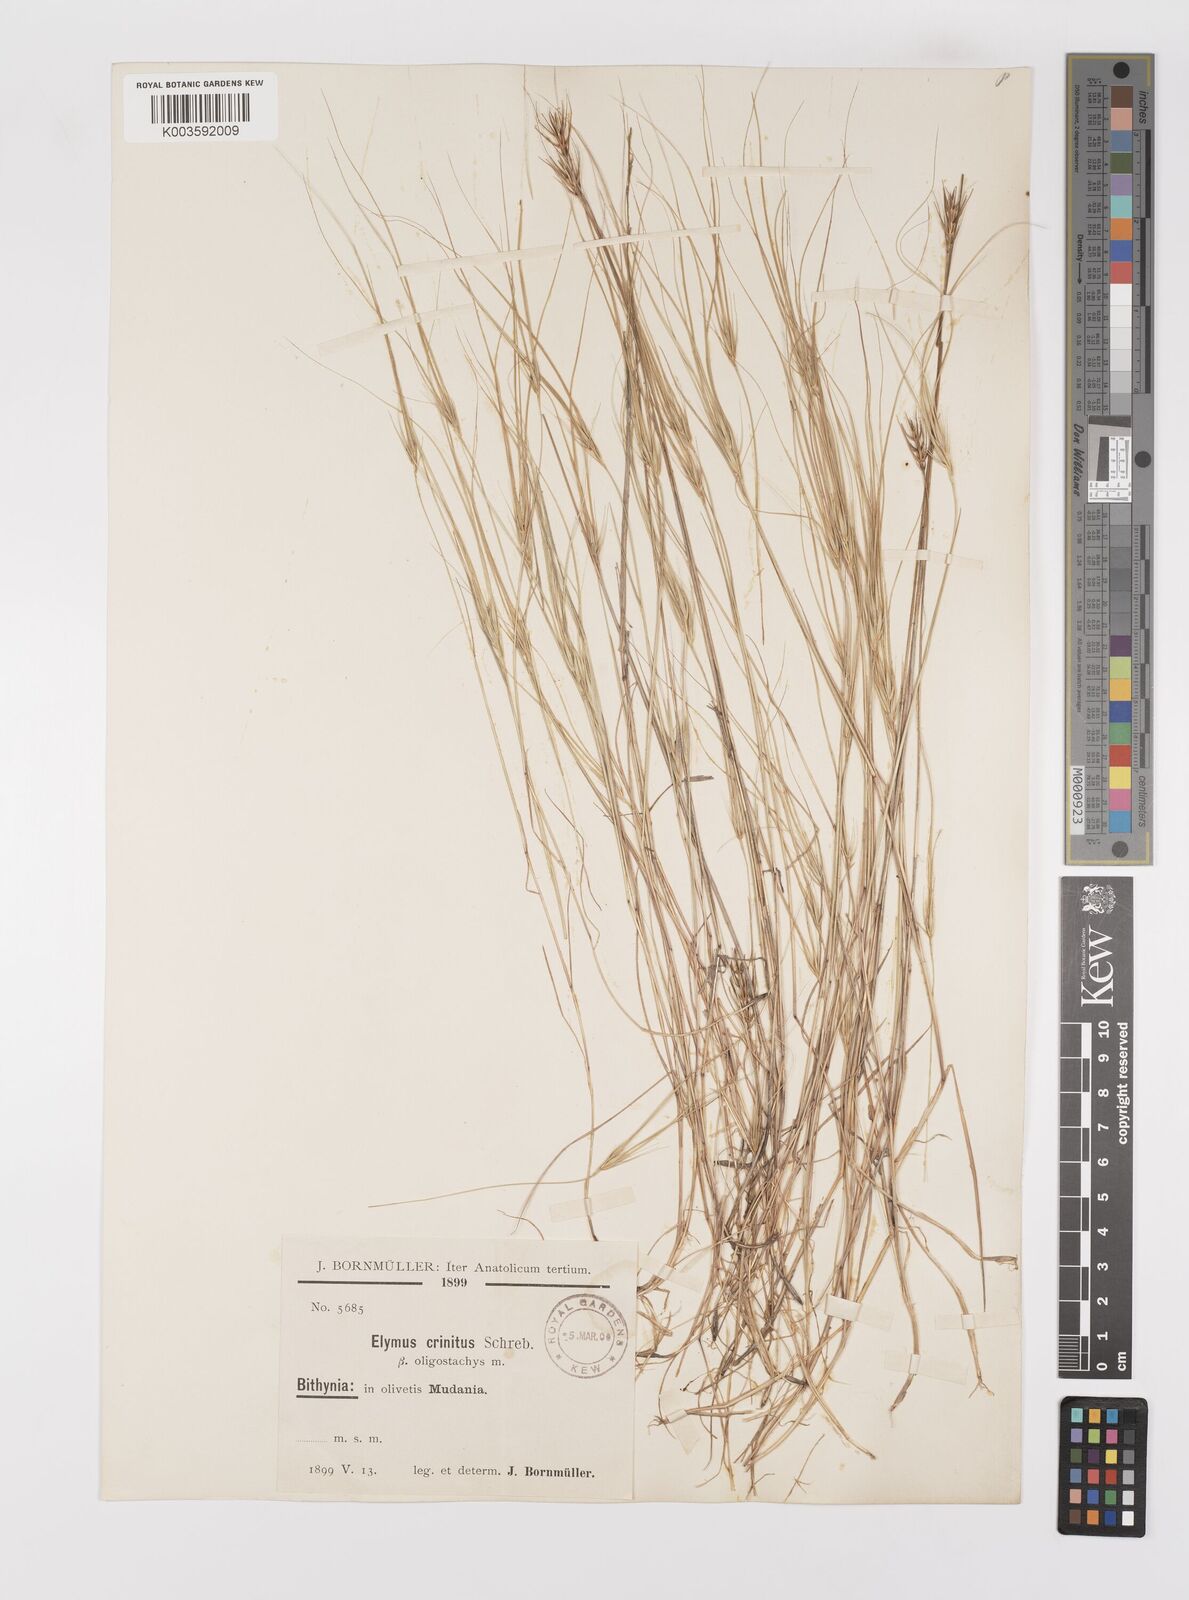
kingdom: Plantae
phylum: Tracheophyta
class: Liliopsida
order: Poales
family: Poaceae
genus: Taeniatherum
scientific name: Taeniatherum caput-medusae
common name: Medusahead
